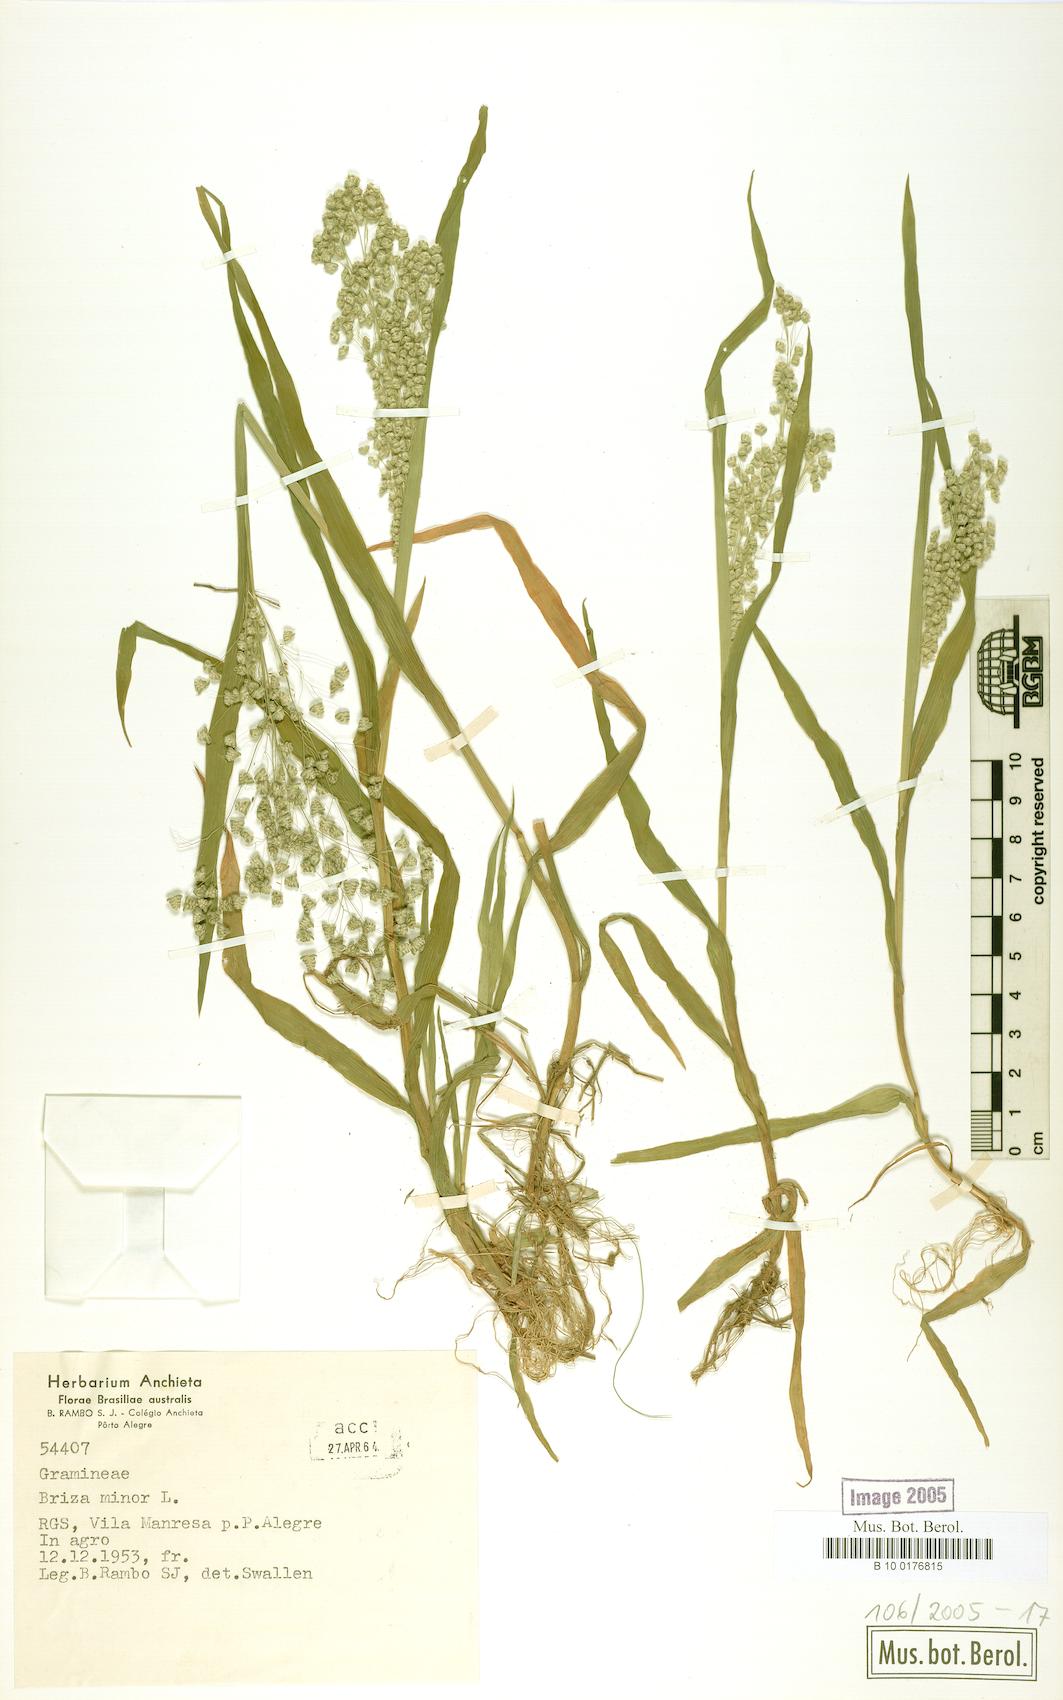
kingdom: Plantae
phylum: Tracheophyta
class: Liliopsida
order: Poales
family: Poaceae
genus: Briza
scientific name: Briza minor
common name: Lesser quaking-grass
